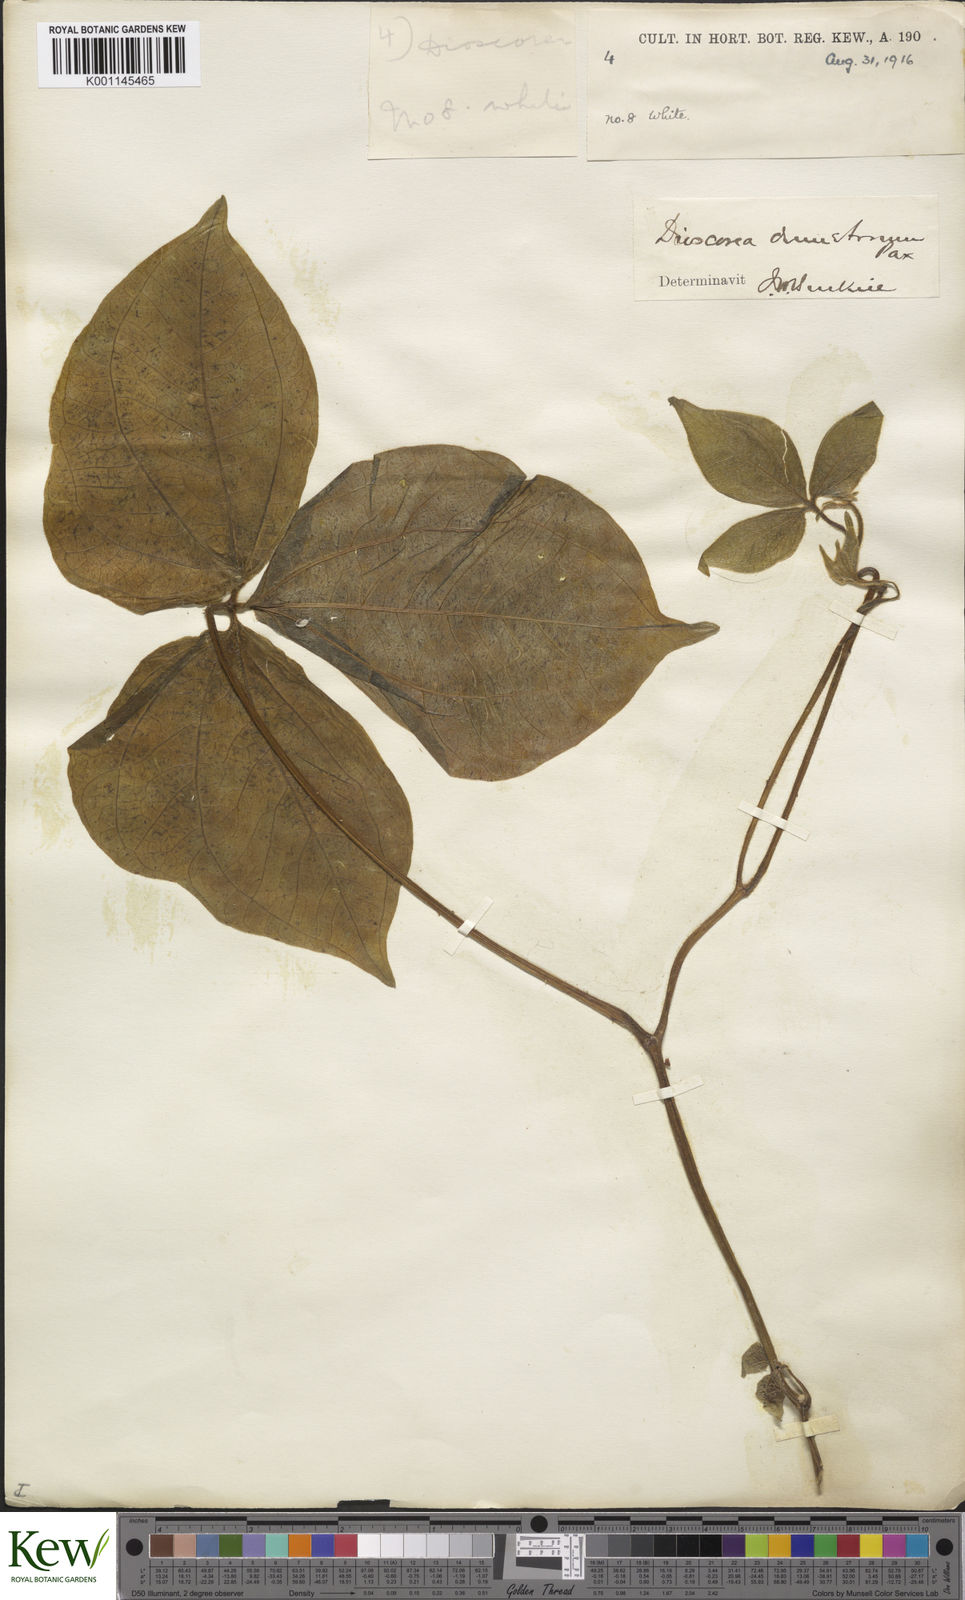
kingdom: Plantae
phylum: Tracheophyta
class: Liliopsida
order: Dioscoreales
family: Dioscoreaceae
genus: Dioscorea
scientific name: Dioscorea dumetorum
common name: African bitter yam
